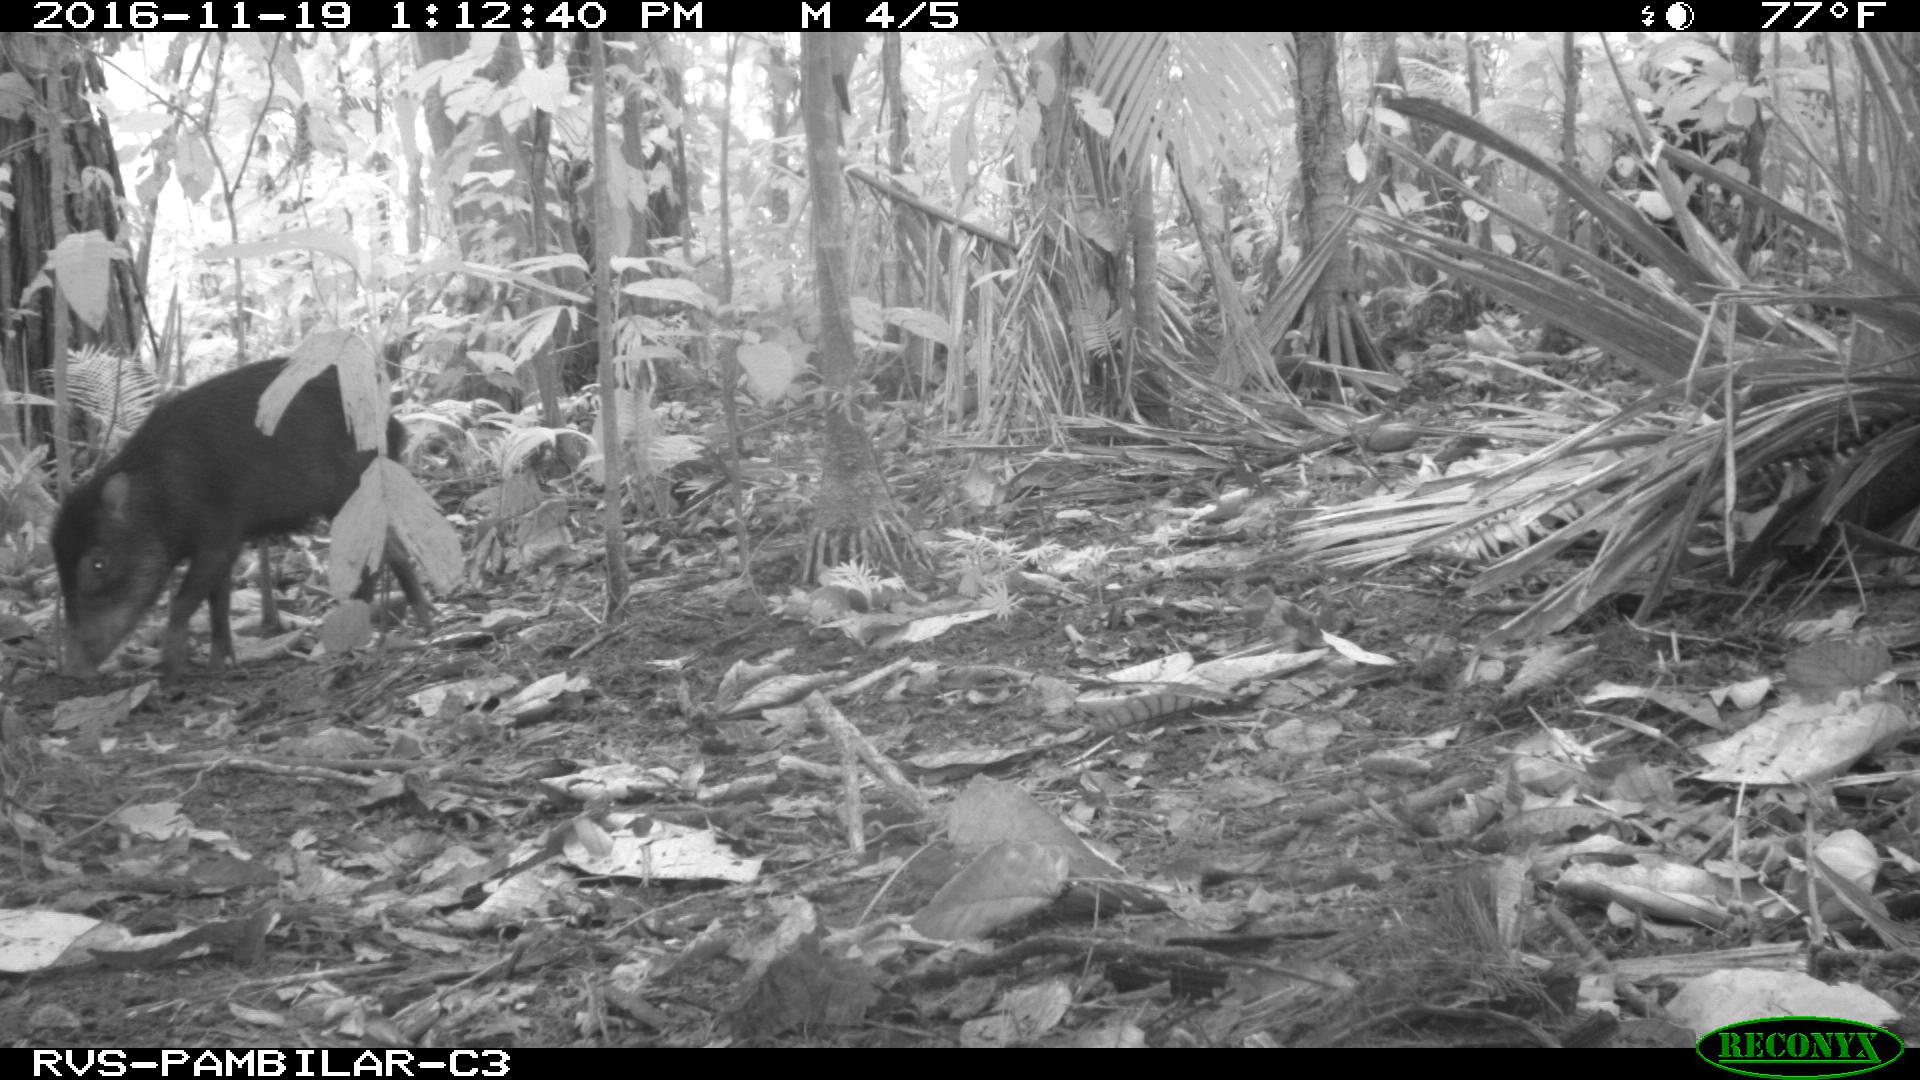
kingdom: Animalia
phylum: Chordata
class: Mammalia
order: Artiodactyla
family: Tayassuidae
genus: Tayassu
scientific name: Tayassu pecari
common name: White-lipped peccary
